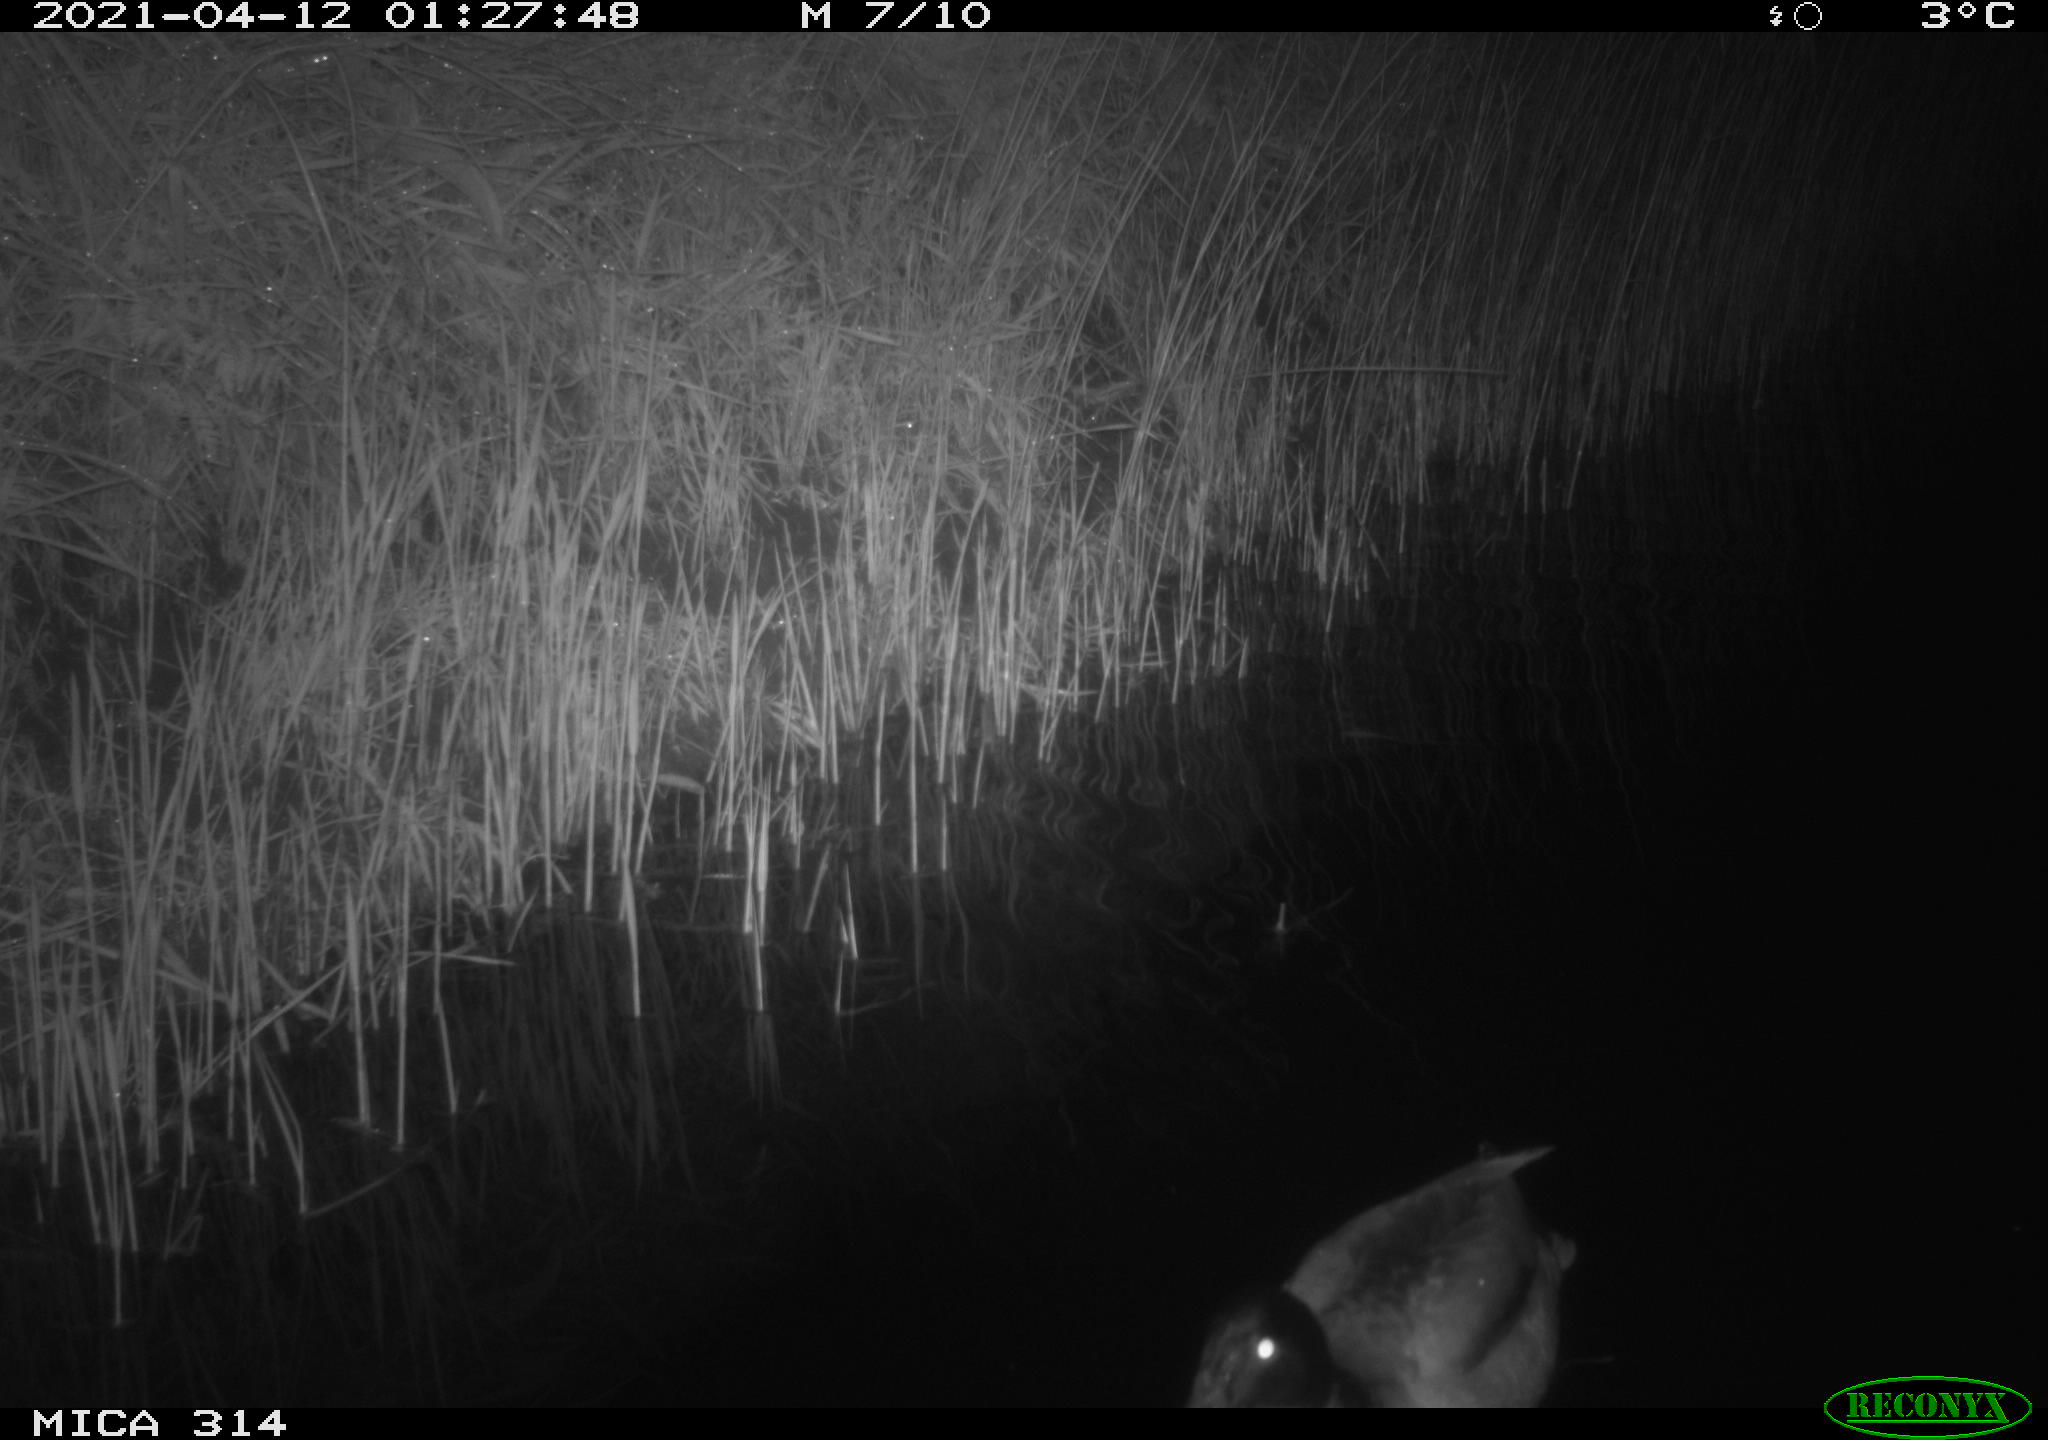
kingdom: Animalia
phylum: Chordata
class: Aves
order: Anseriformes
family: Anatidae
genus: Anas
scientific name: Anas platyrhynchos
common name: Mallard
